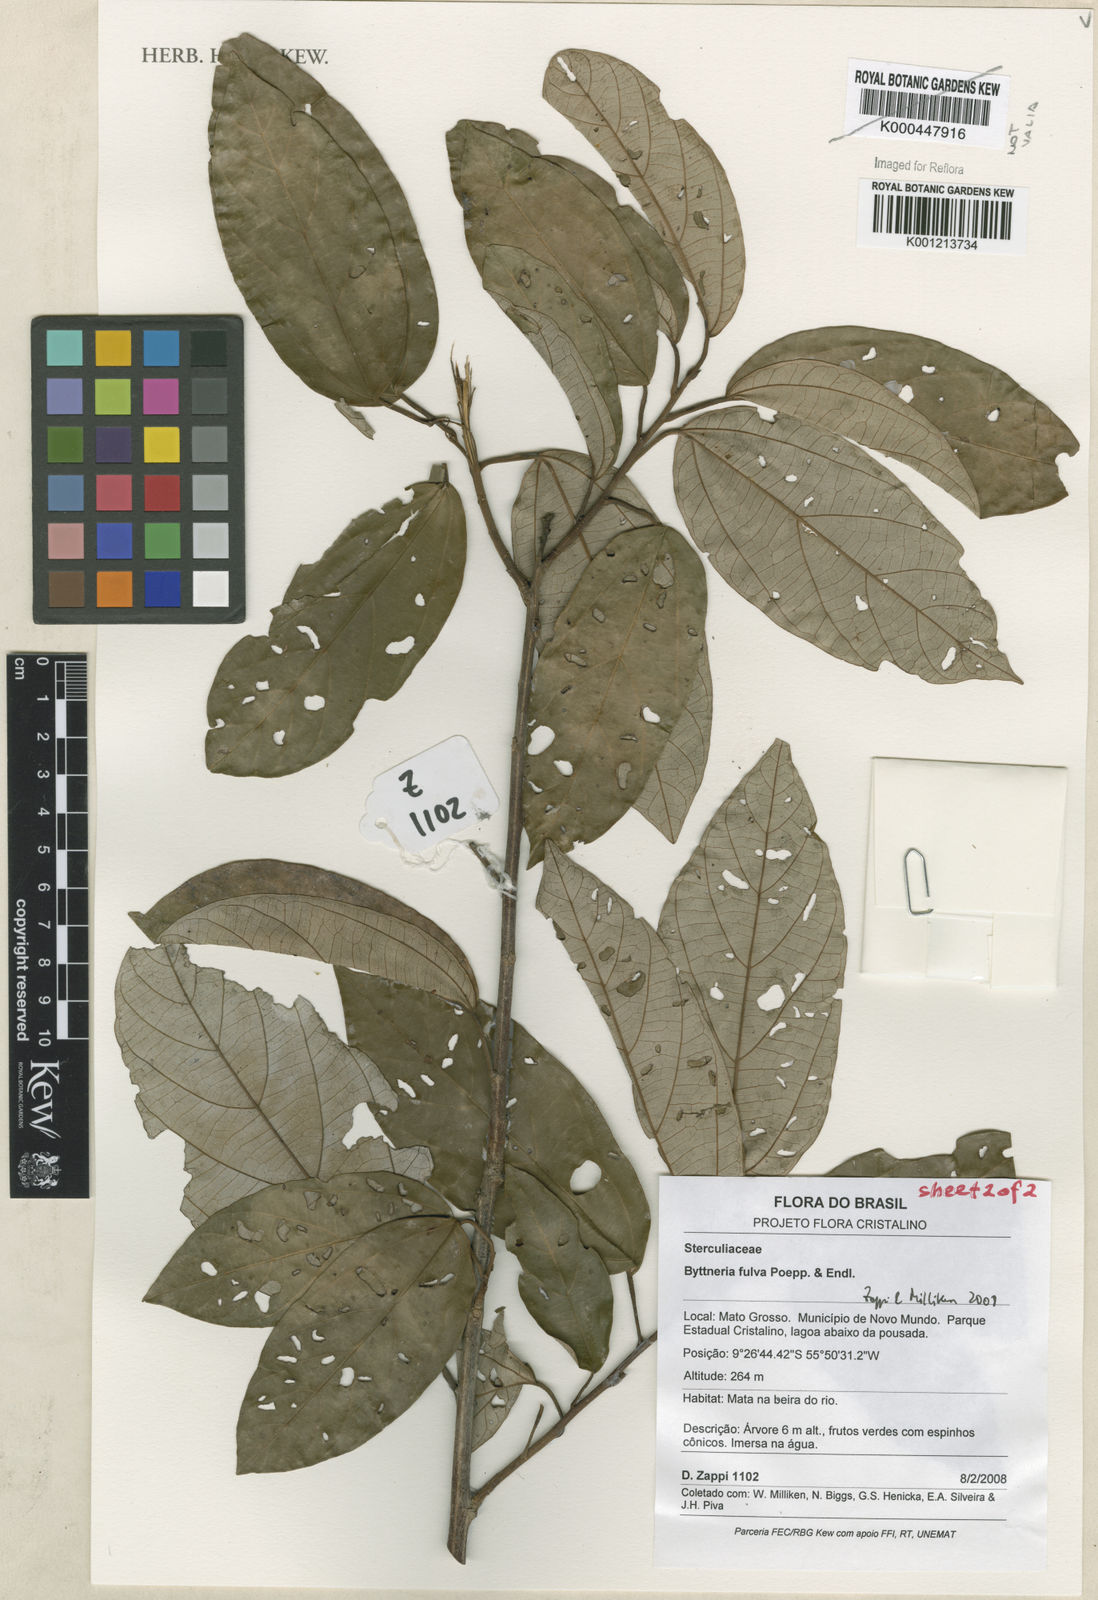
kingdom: Plantae
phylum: Tracheophyta
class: Magnoliopsida
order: Malvales
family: Malvaceae
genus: Byttneria
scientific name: Byttneria fulva
